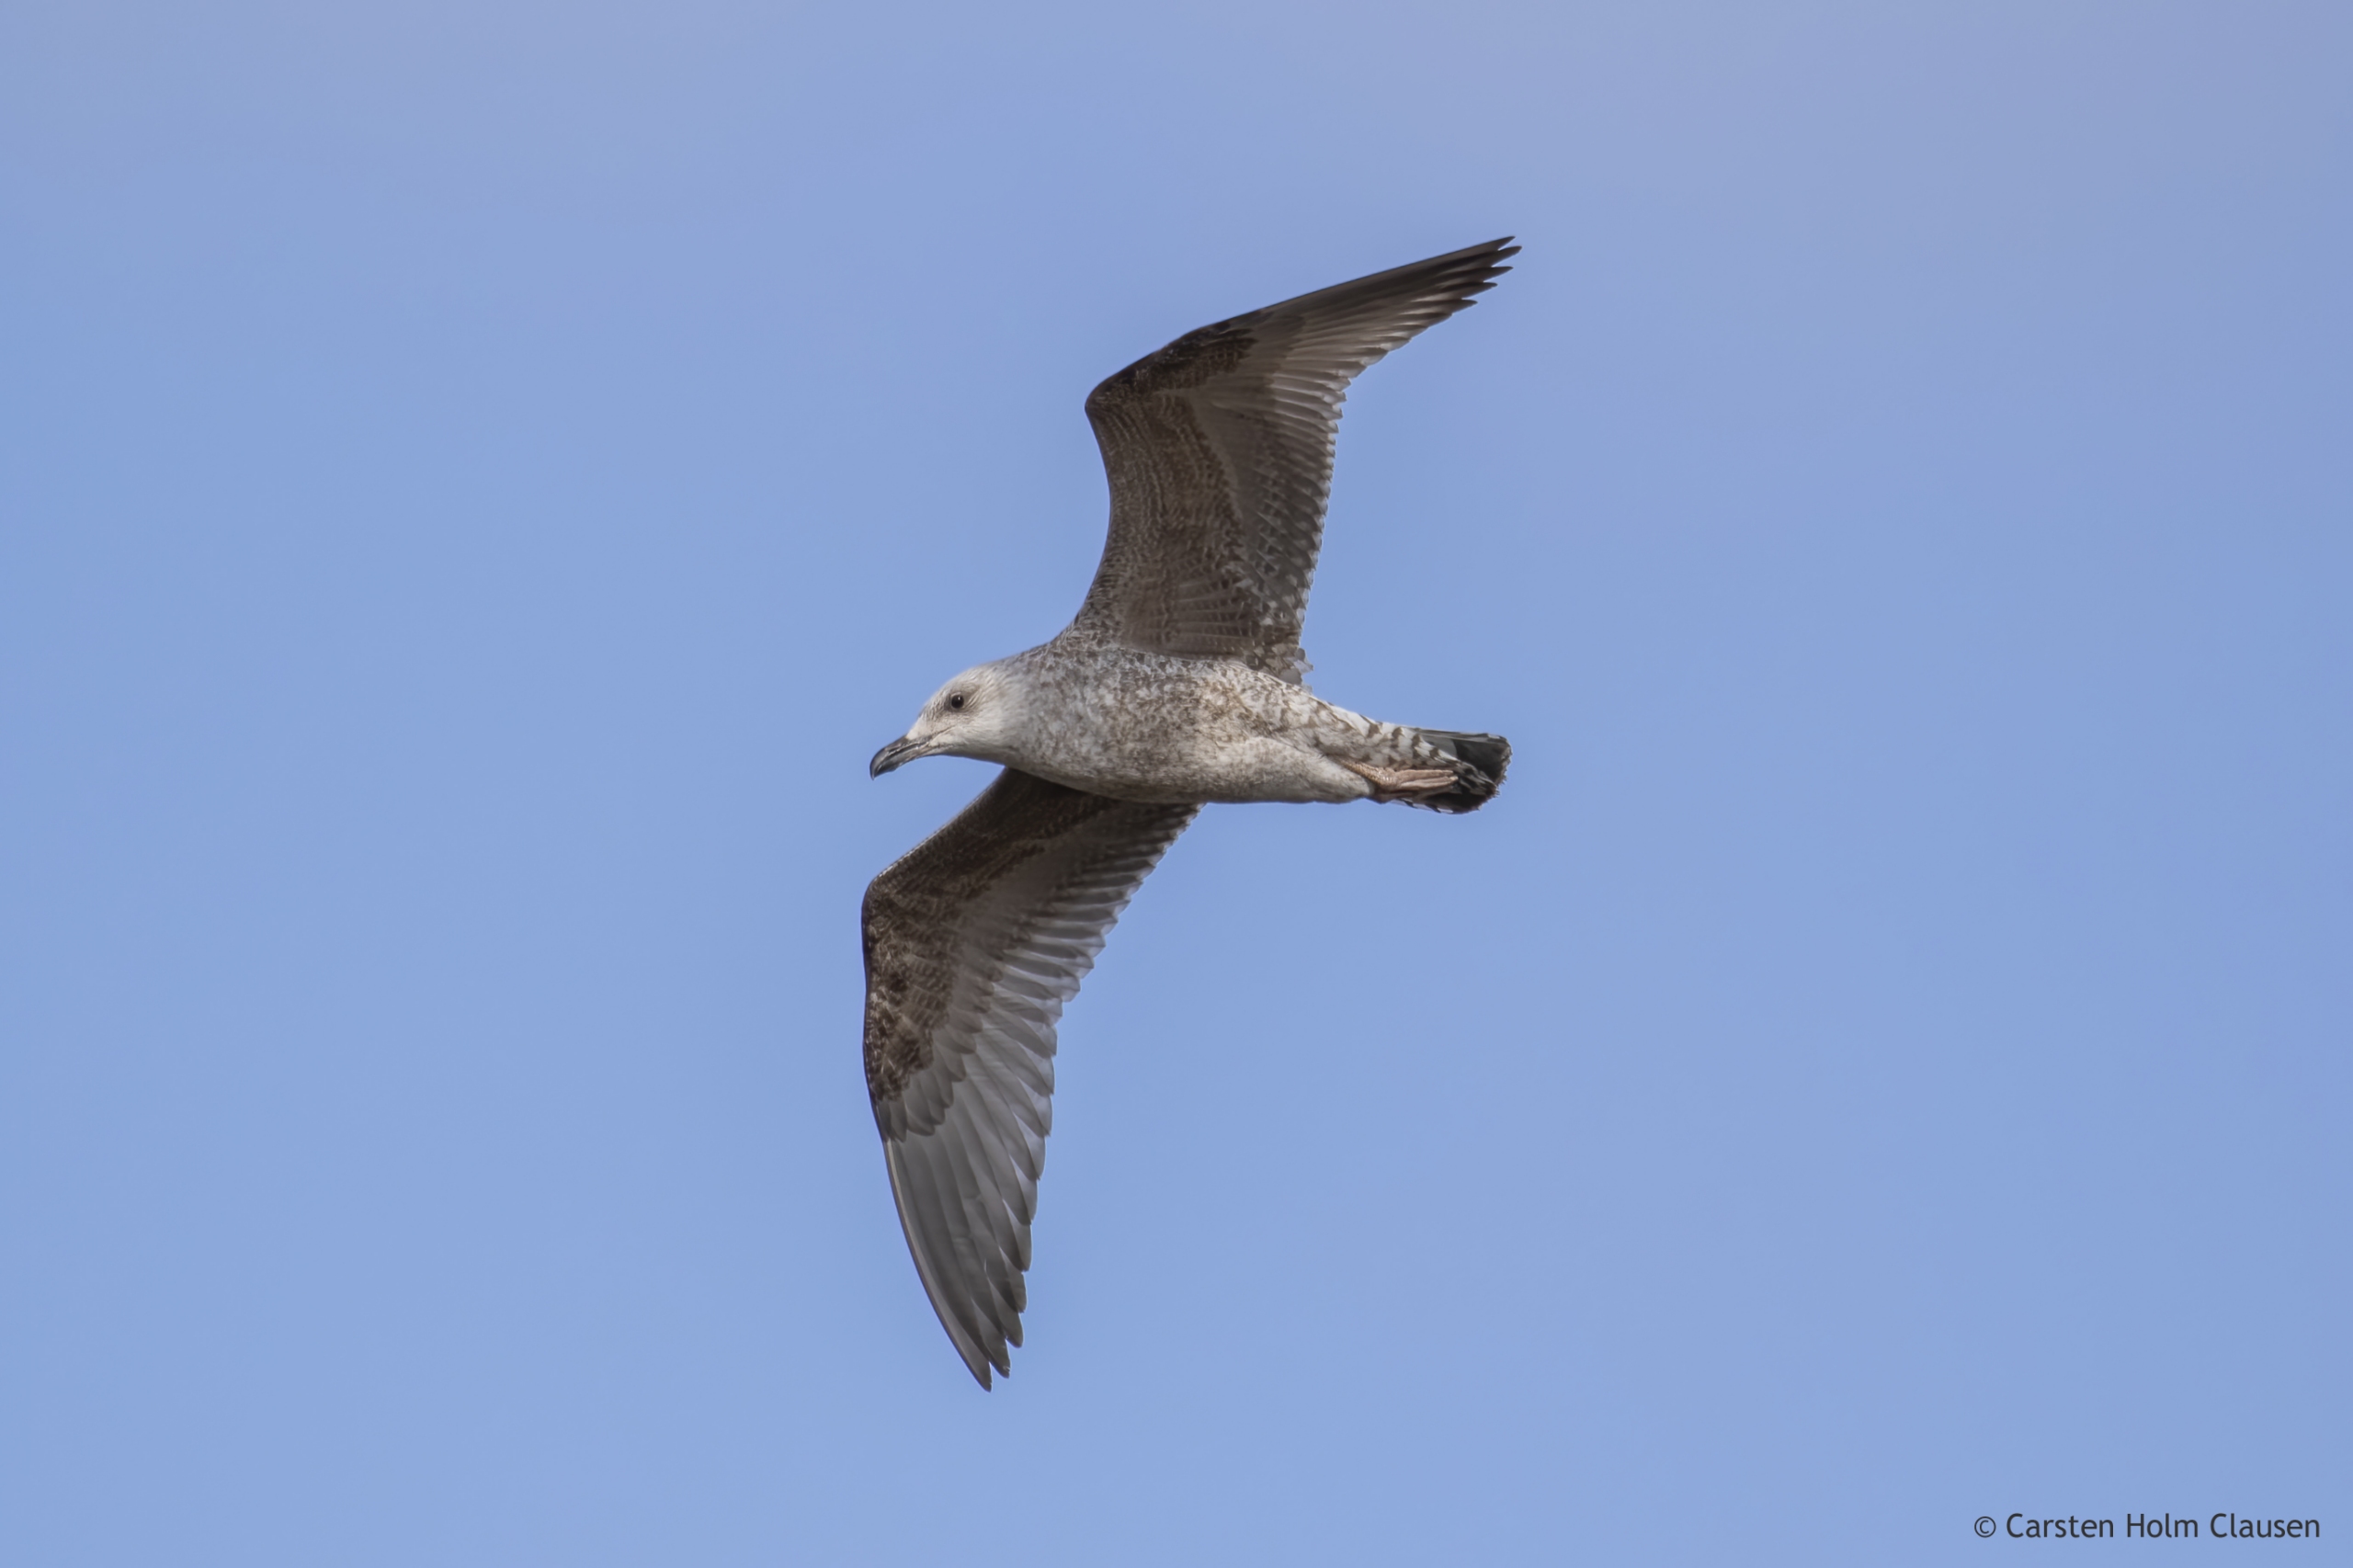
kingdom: Animalia
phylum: Chordata
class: Aves
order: Charadriiformes
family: Laridae
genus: Larus
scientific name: Larus argentatus
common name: Sølvmåge
